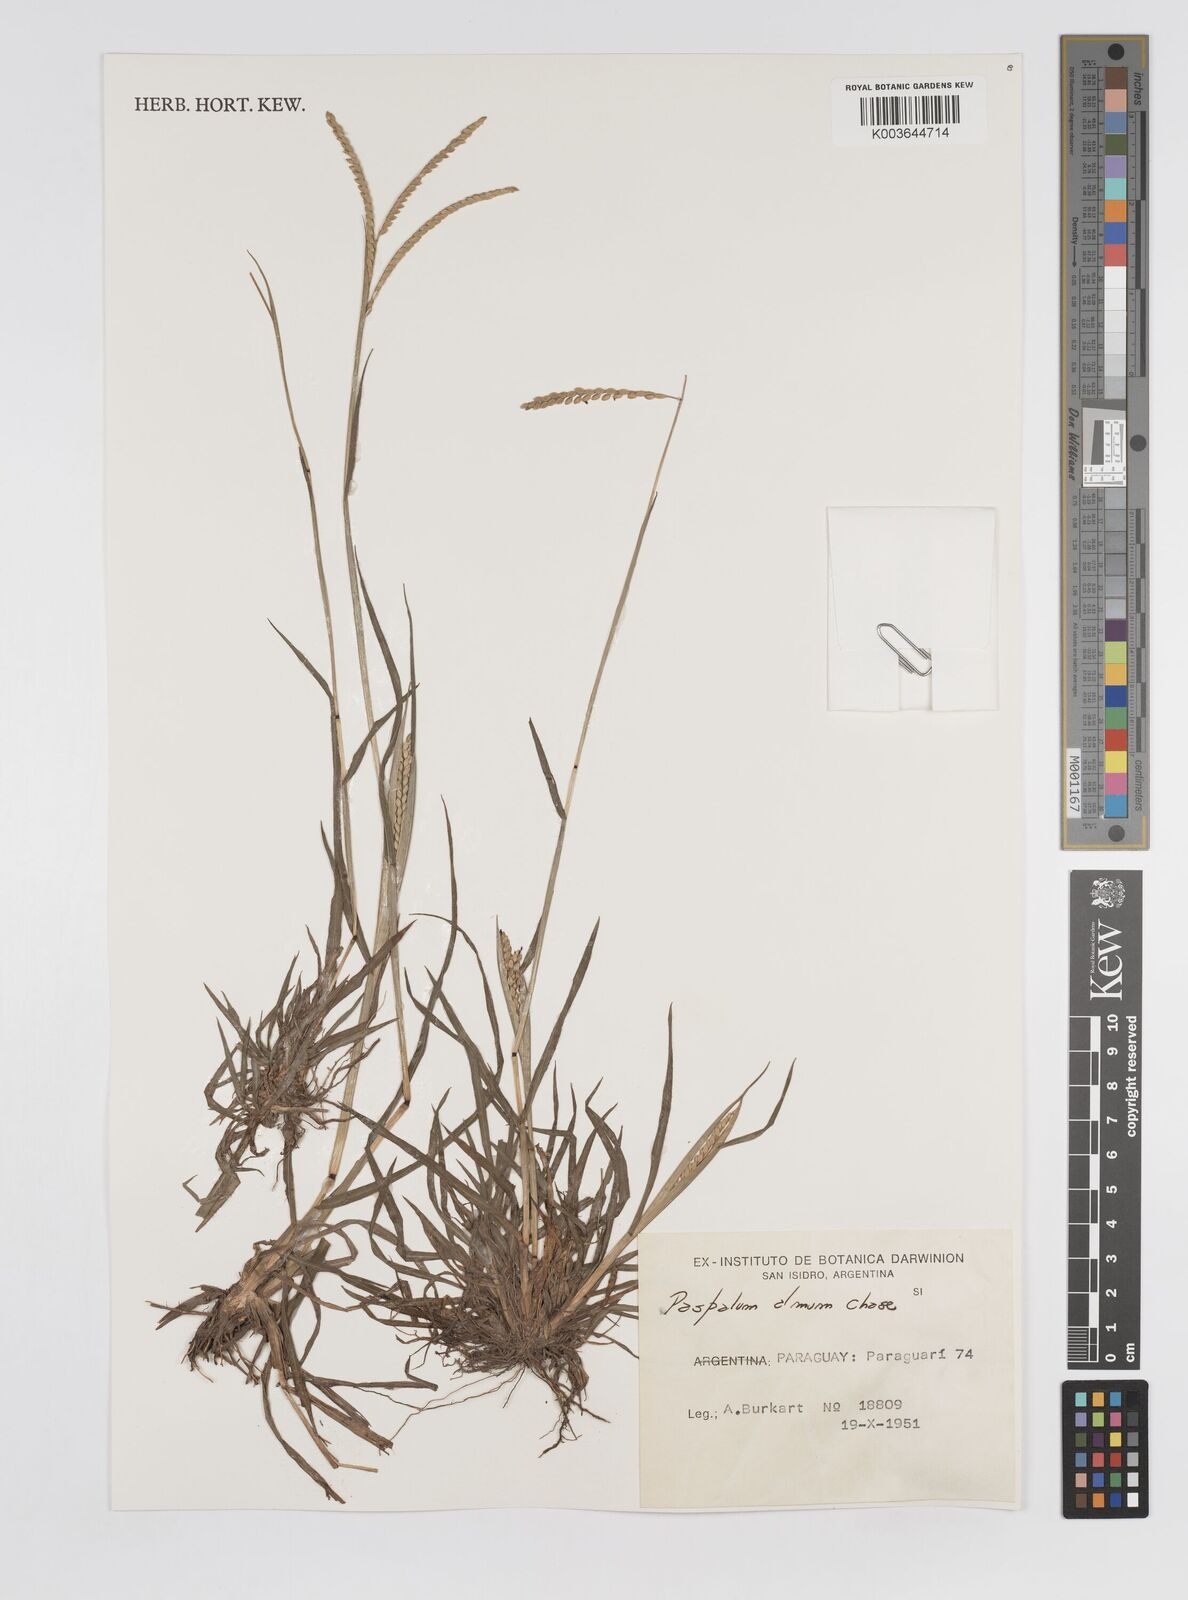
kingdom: Plantae
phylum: Tracheophyta
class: Liliopsida
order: Poales
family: Poaceae
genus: Paspalum
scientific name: Paspalum almum
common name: Comb's crowngrass
